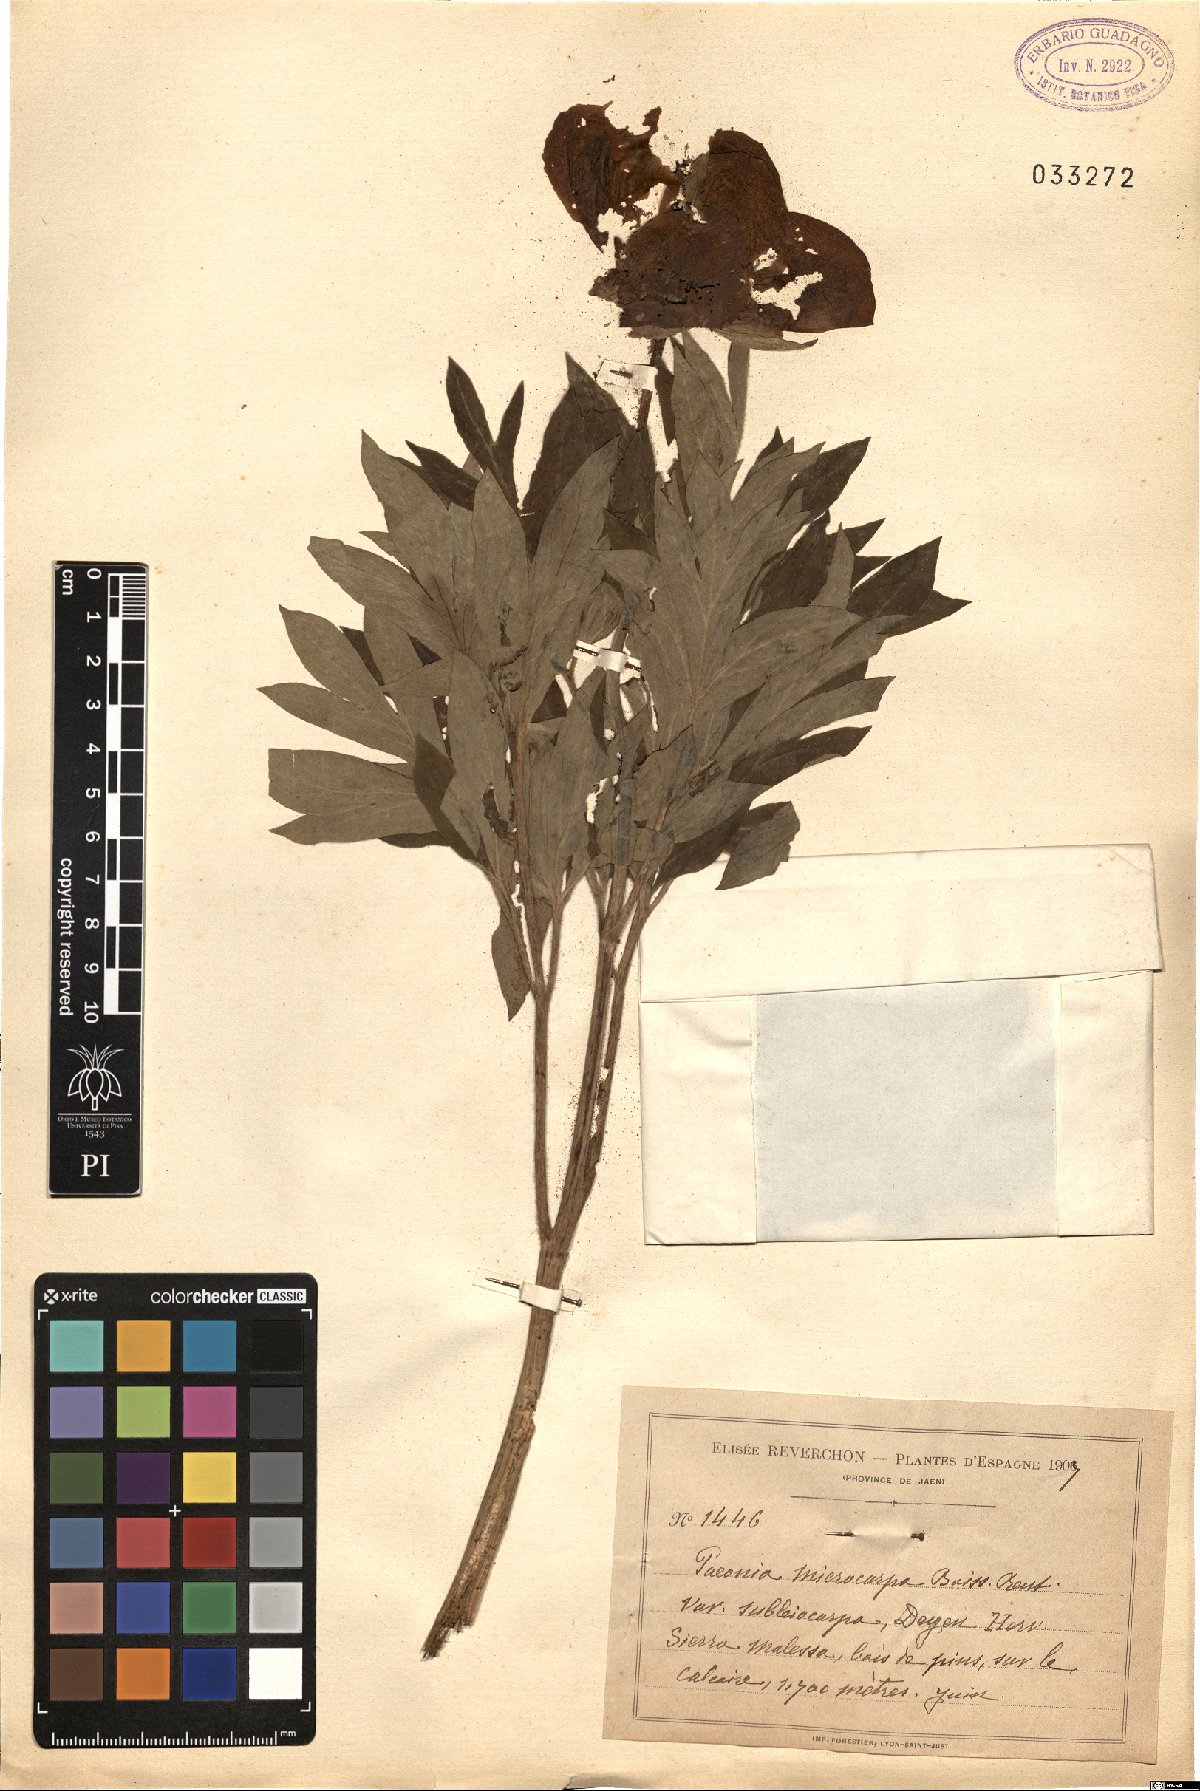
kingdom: Plantae
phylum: Tracheophyta
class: Magnoliopsida
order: Saxifragales
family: Paeoniaceae
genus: Paeonia
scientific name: Paeonia officinalis
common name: Common peony
